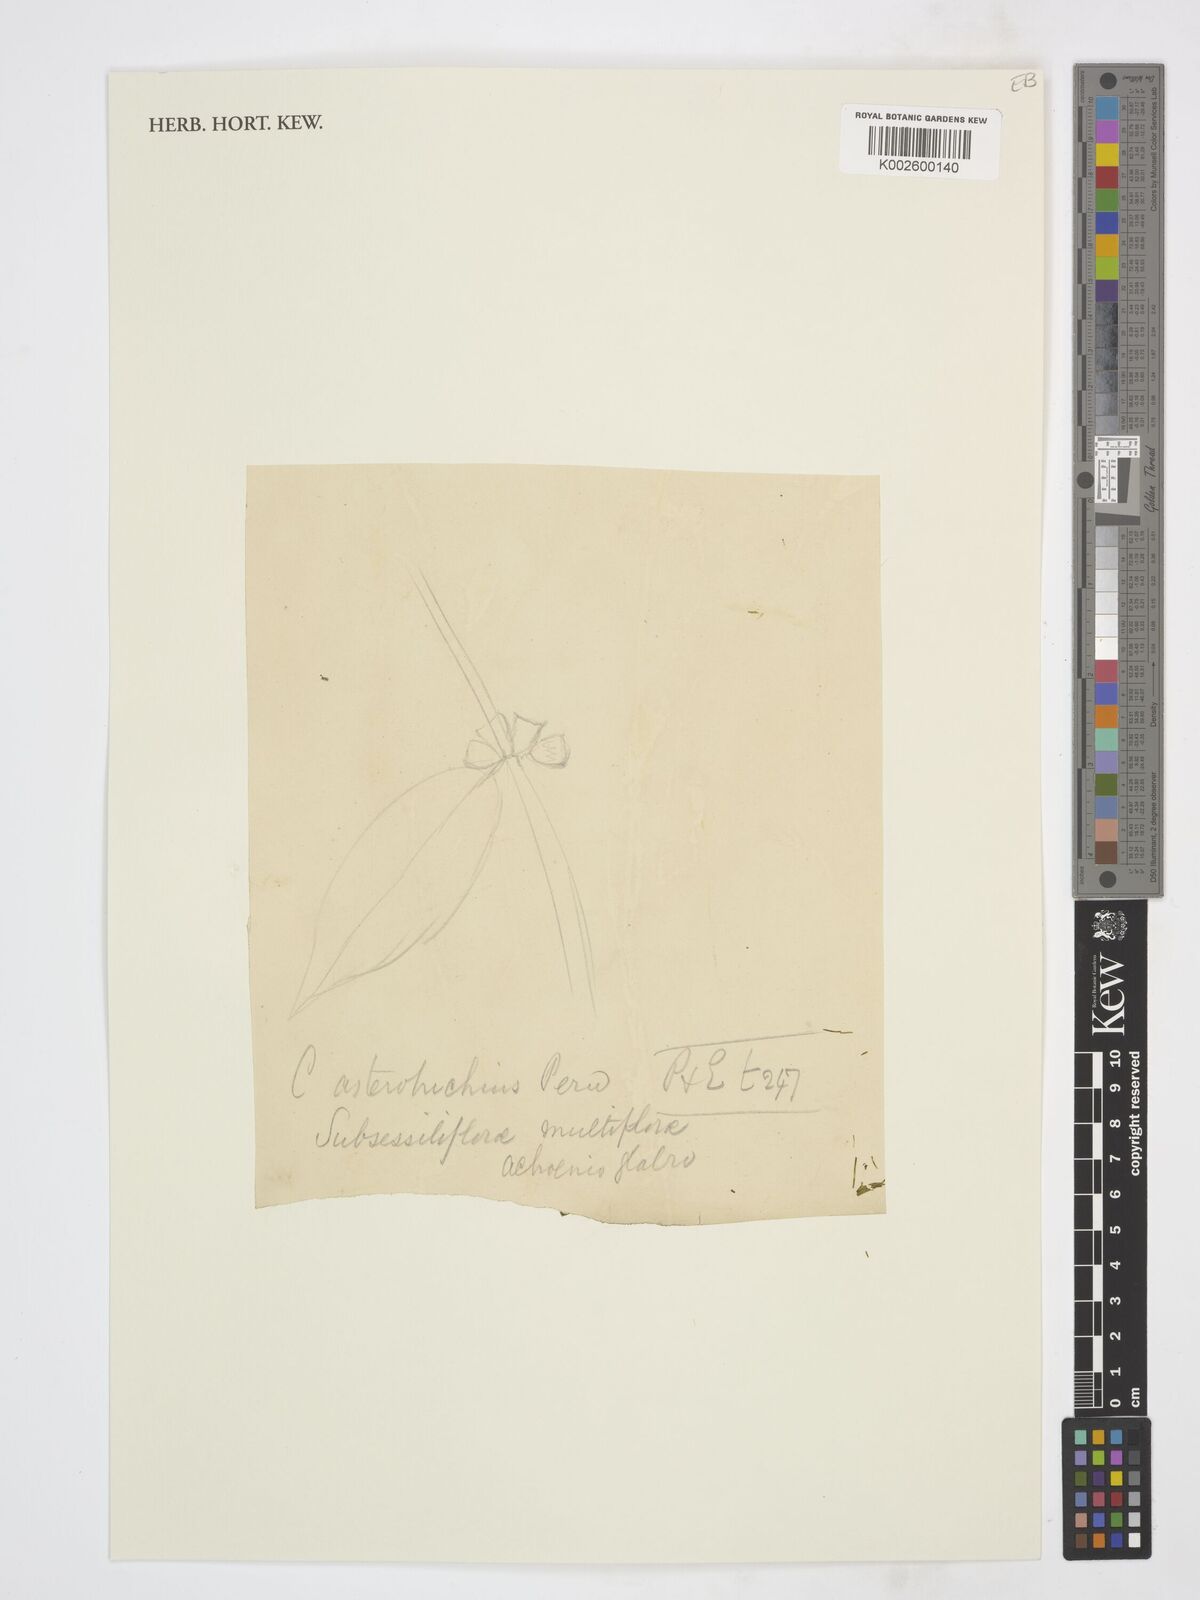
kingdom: Plantae
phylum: Tracheophyta
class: Magnoliopsida
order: Asterales
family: Asteraceae
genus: Piptocarpha
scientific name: Piptocarpha asterotrichia
